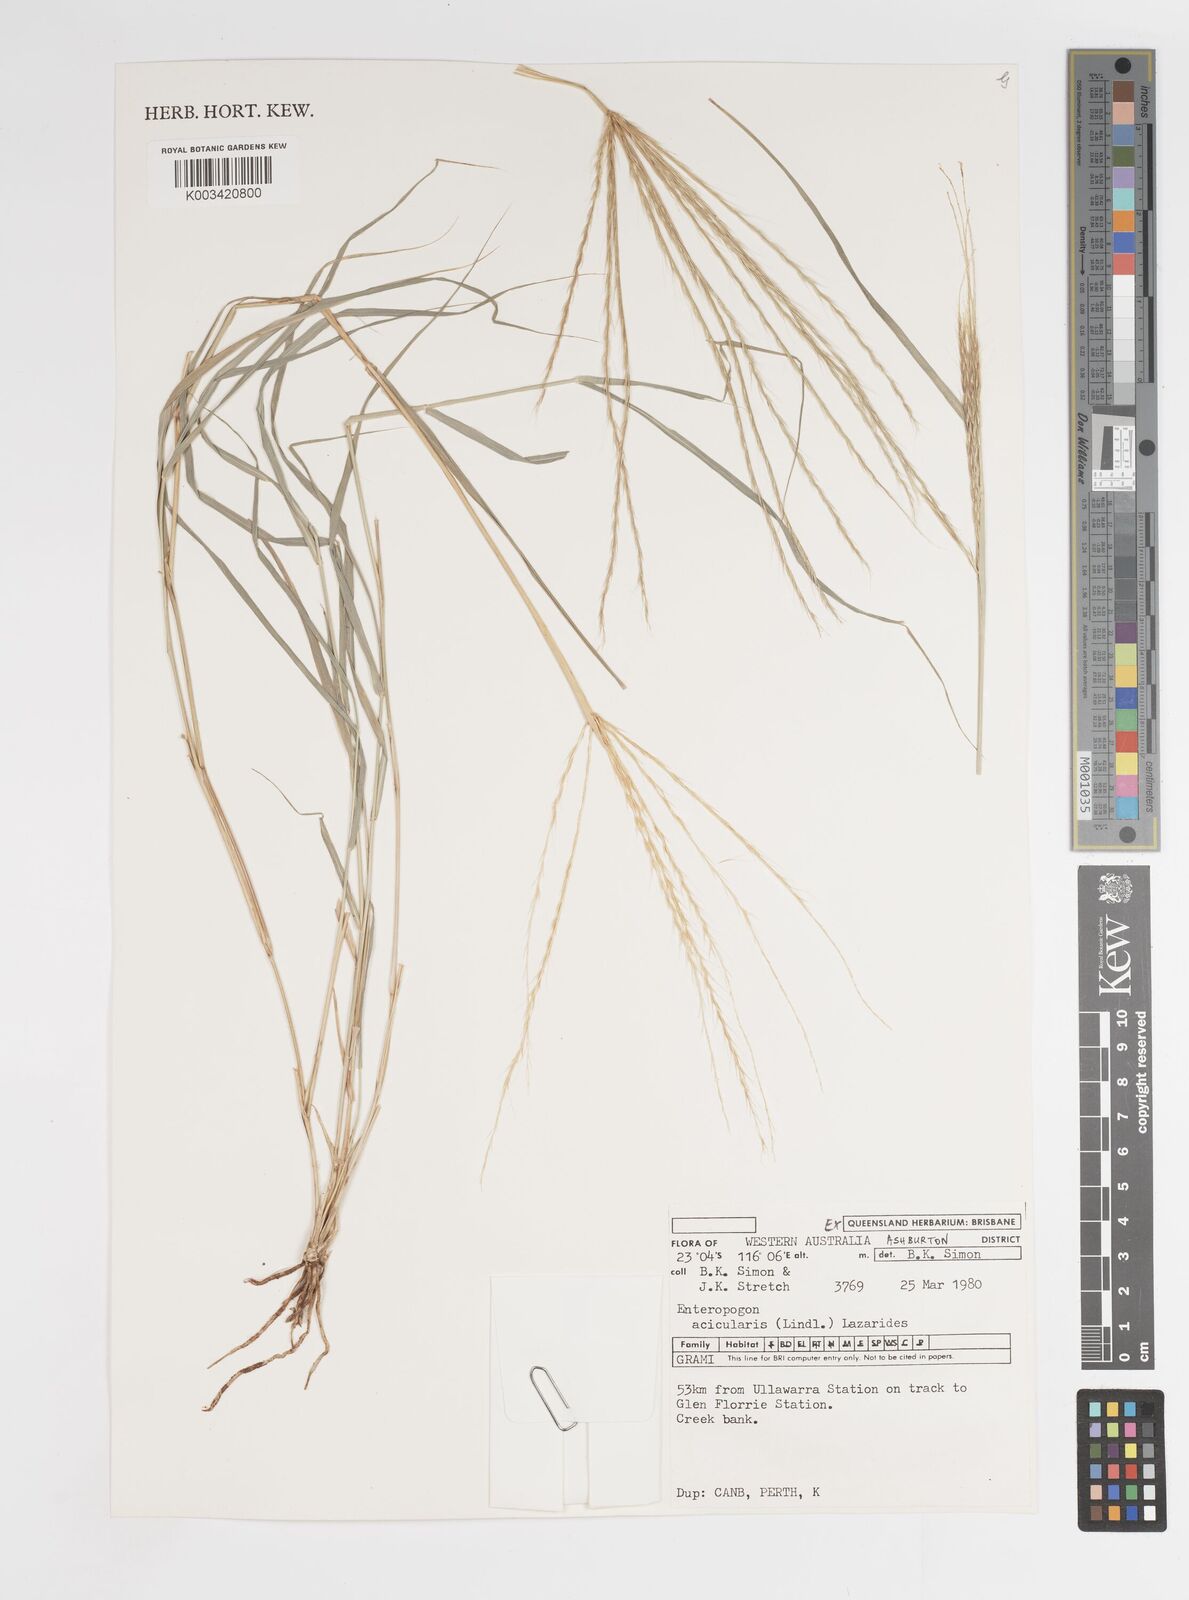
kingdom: Plantae
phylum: Tracheophyta
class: Liliopsida
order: Poales
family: Poaceae
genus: Enteropogon
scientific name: Enteropogon acicularis
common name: Curly windmill grass
